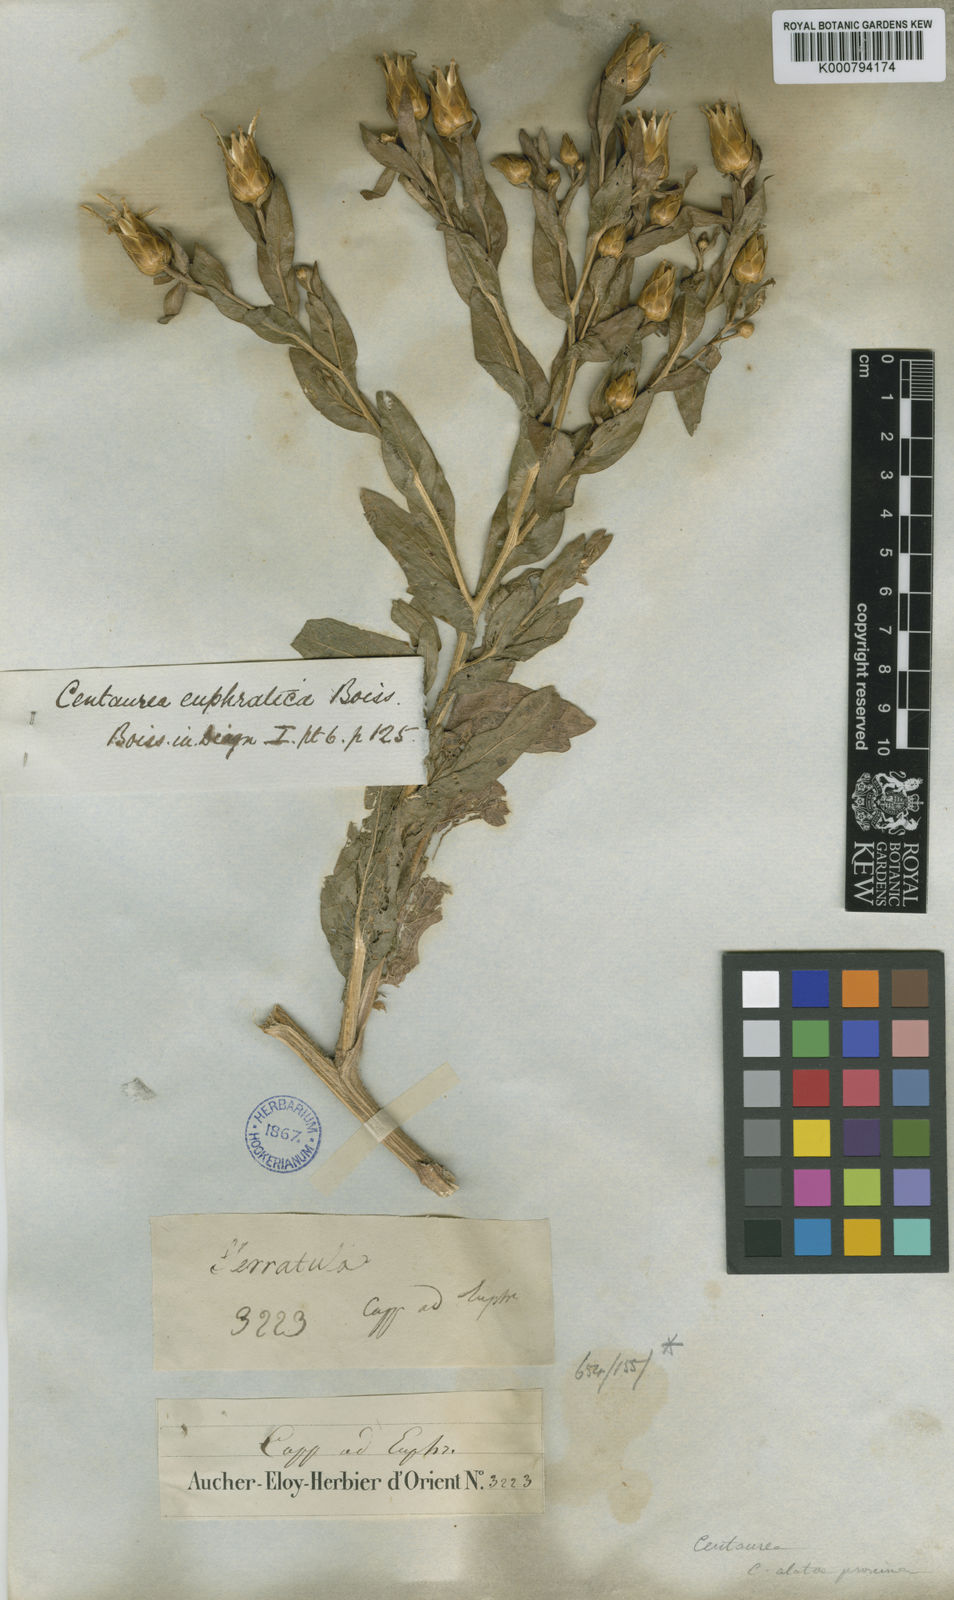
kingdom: Plantae
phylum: Tracheophyta
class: Magnoliopsida
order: Asterales
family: Asteraceae
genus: Centaurea
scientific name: Centaurea polypodiifolia
